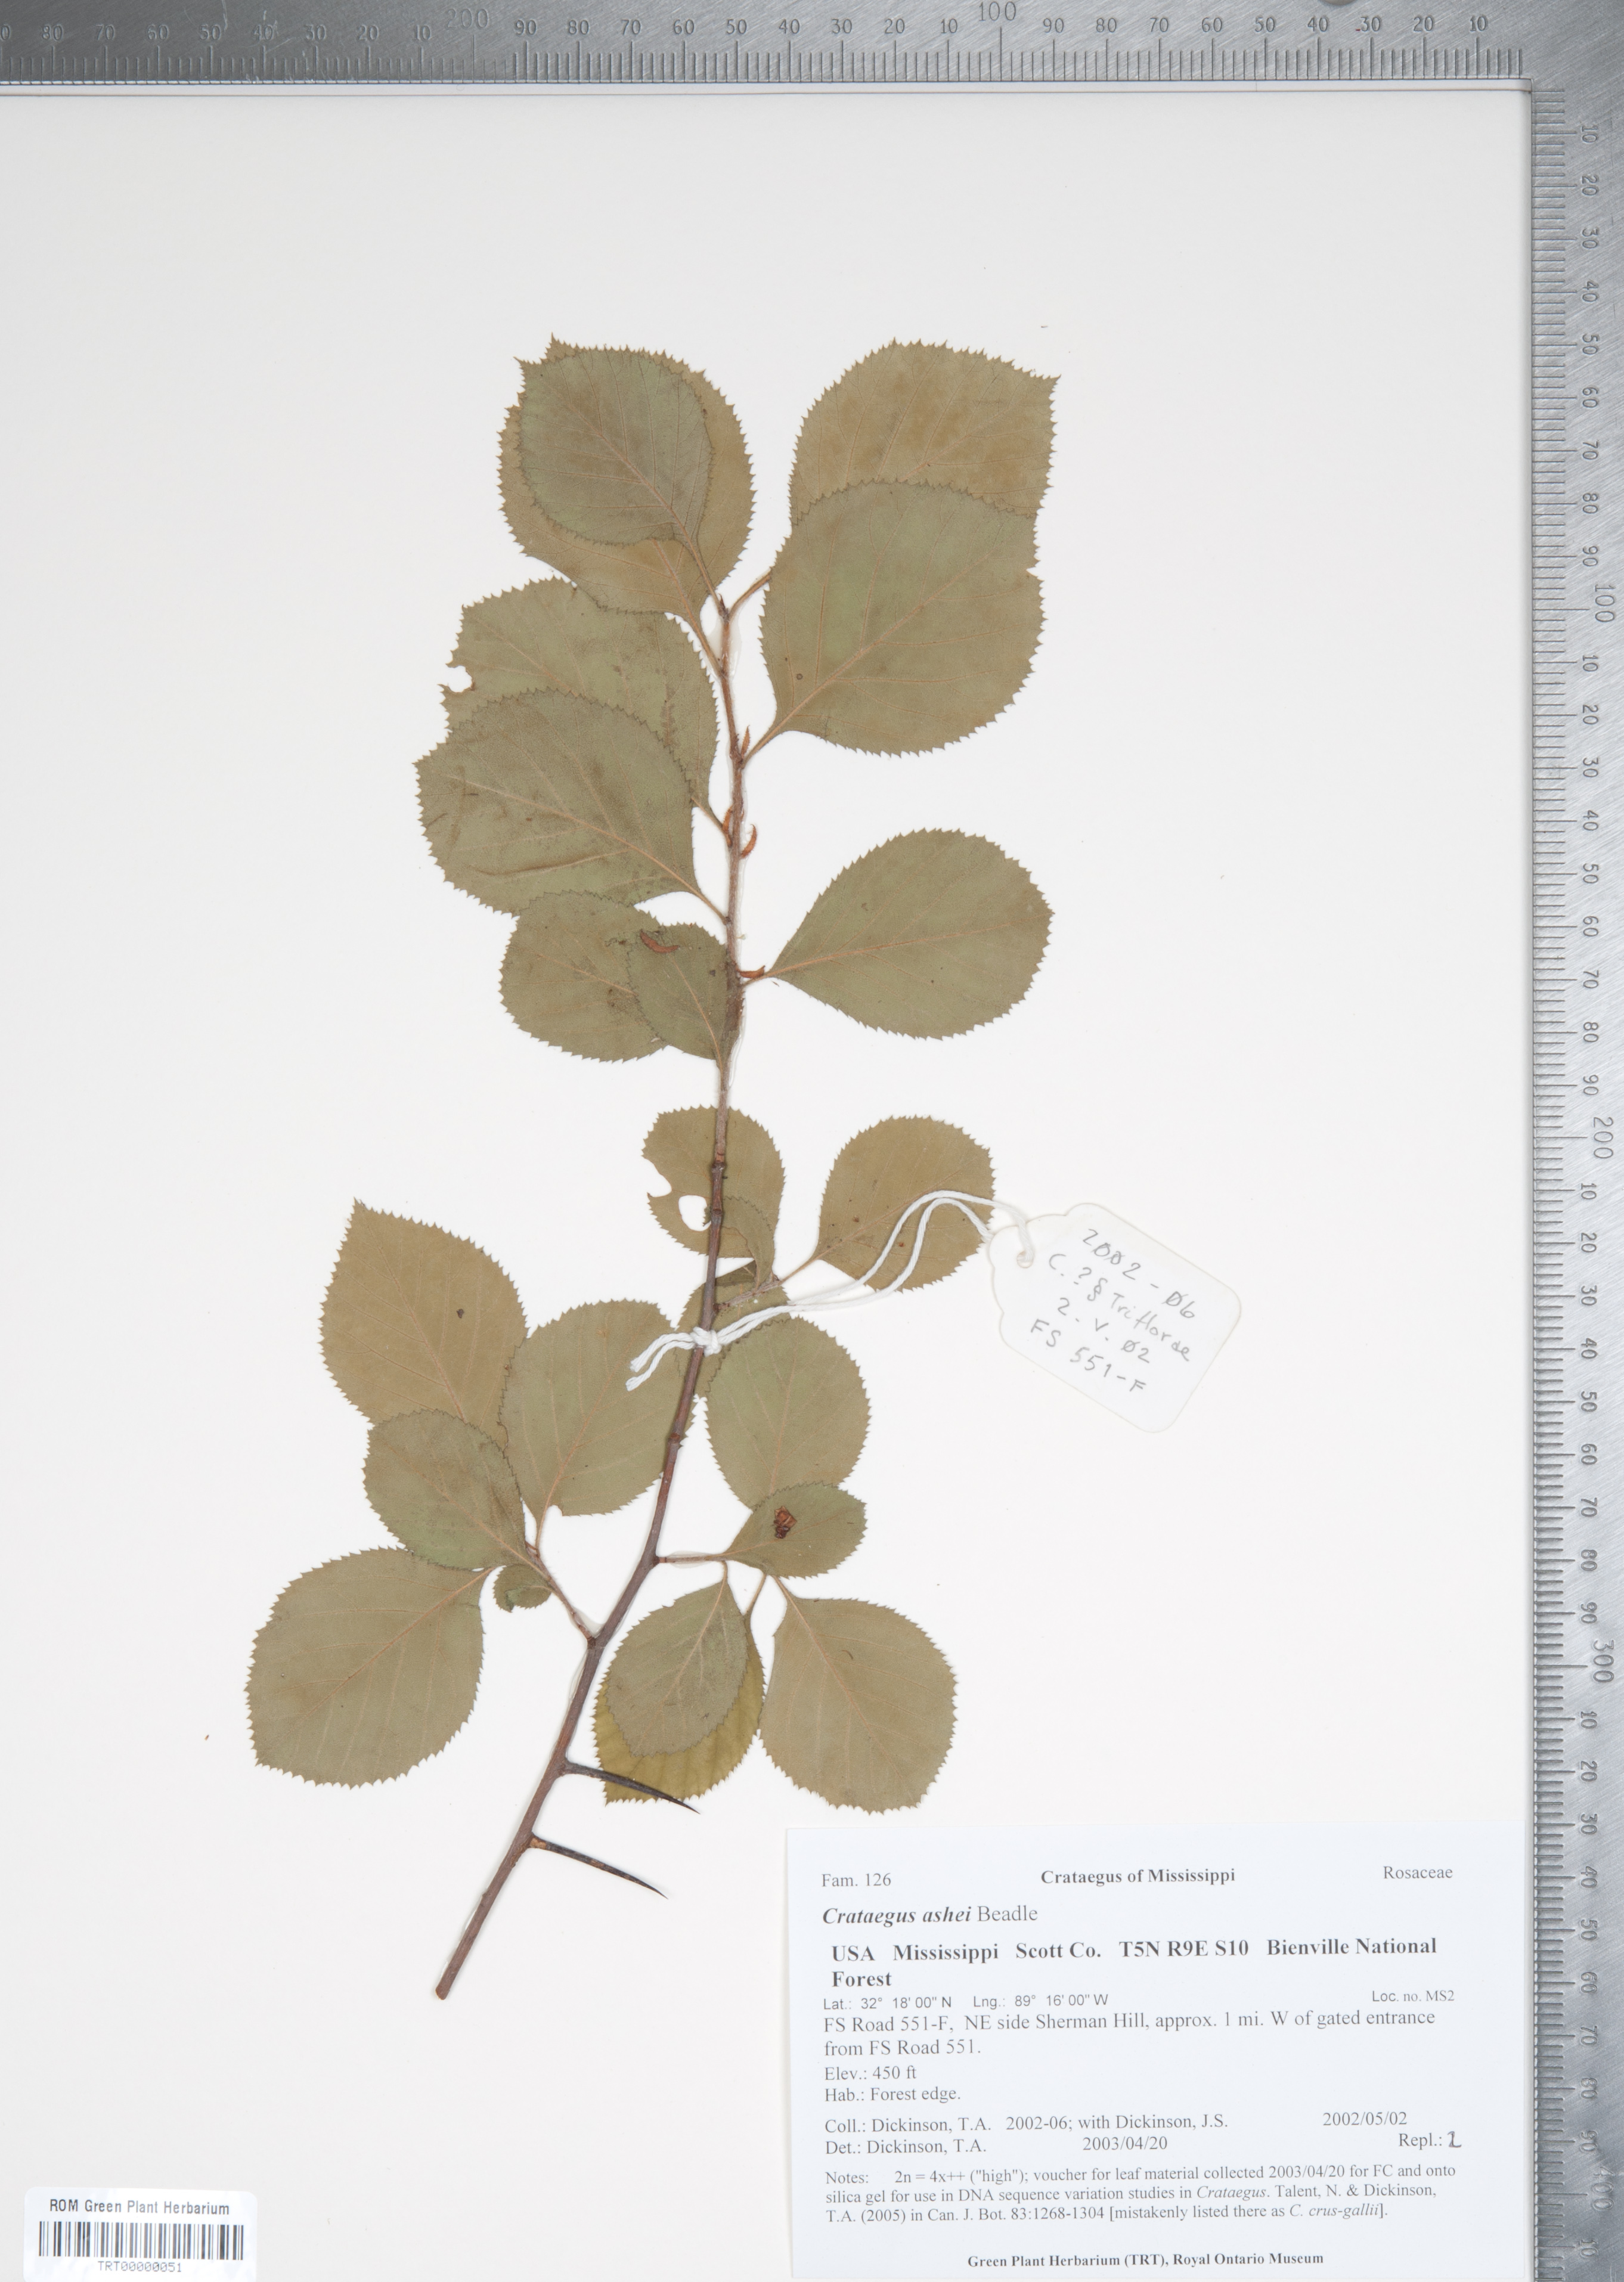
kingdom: Plantae
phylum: Tracheophyta
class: Magnoliopsida
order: Rosales
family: Rosaceae
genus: Crataegus
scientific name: Crataegus ashei
